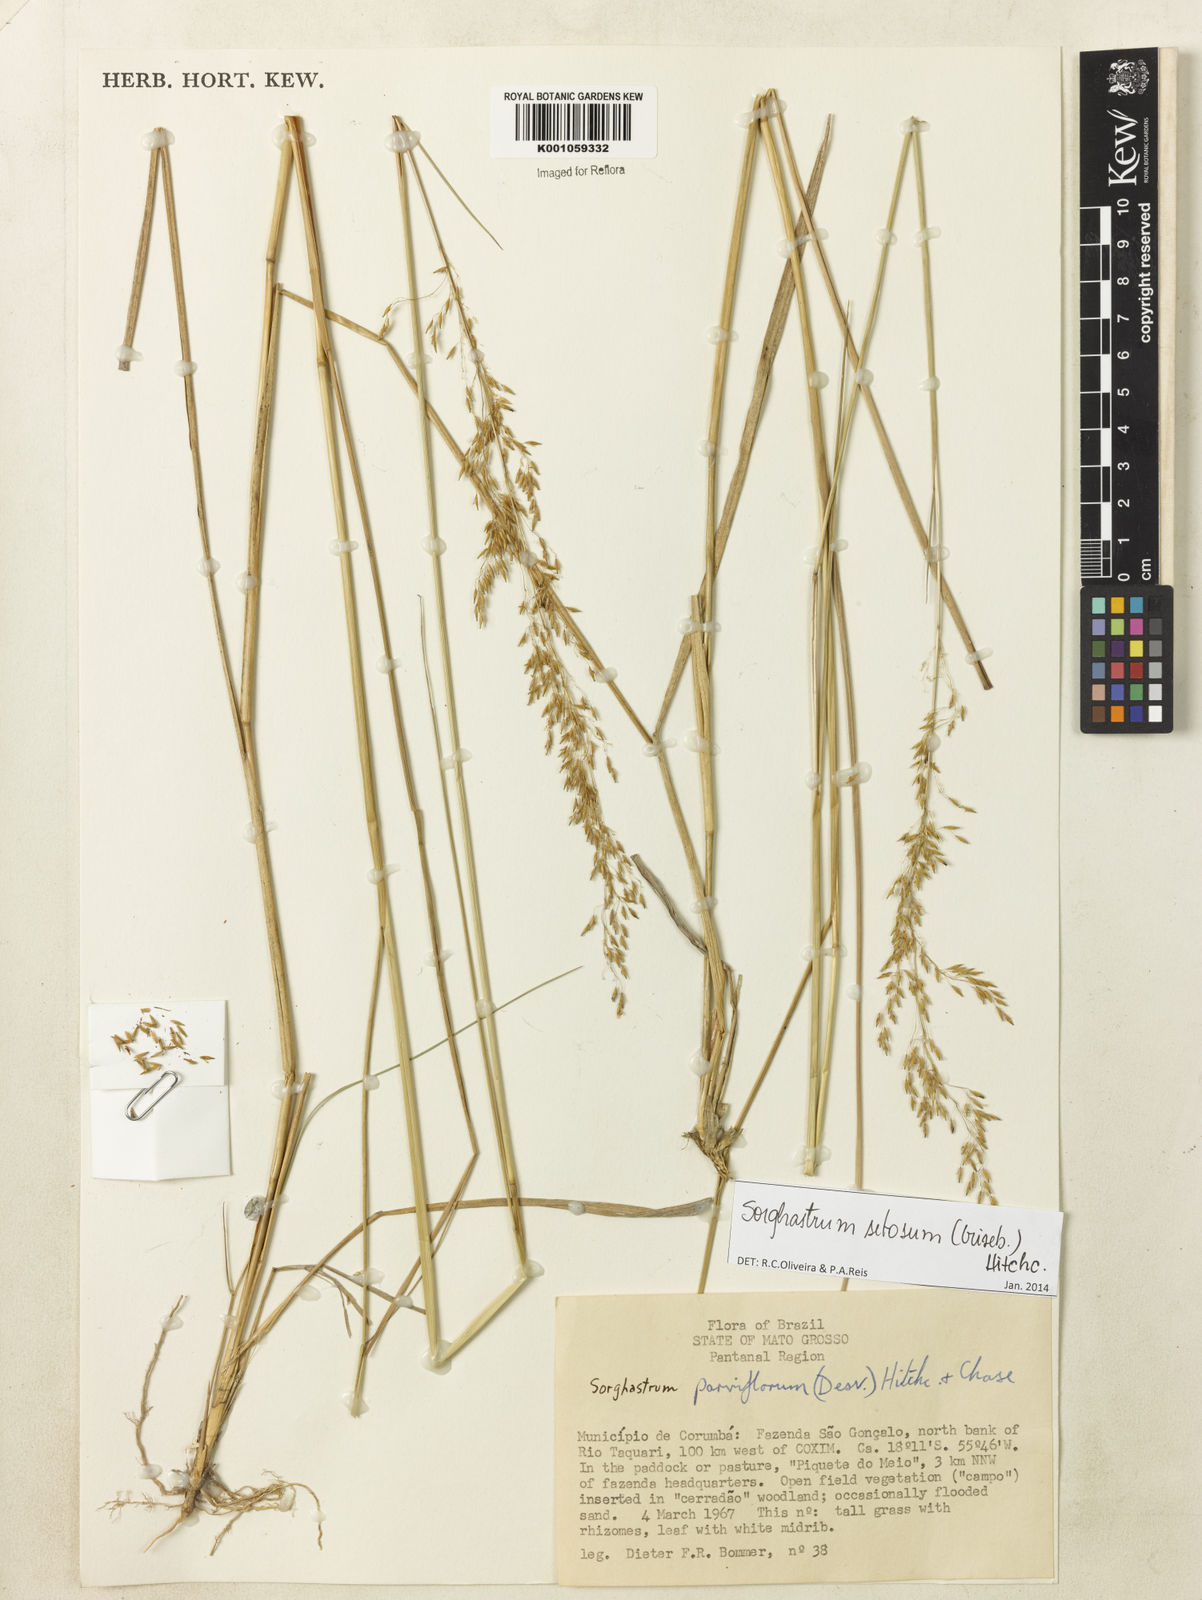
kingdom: Plantae
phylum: Tracheophyta
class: Liliopsida
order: Poales
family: Poaceae
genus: Sorghastrum
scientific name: Sorghastrum setosum
